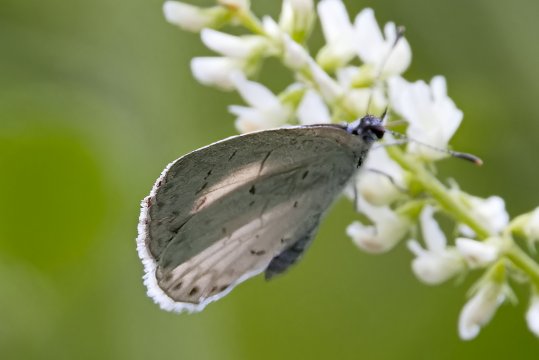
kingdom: Animalia
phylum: Arthropoda
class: Insecta
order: Lepidoptera
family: Lycaenidae
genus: Cyaniris
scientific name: Cyaniris neglecta
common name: Summer Azure
